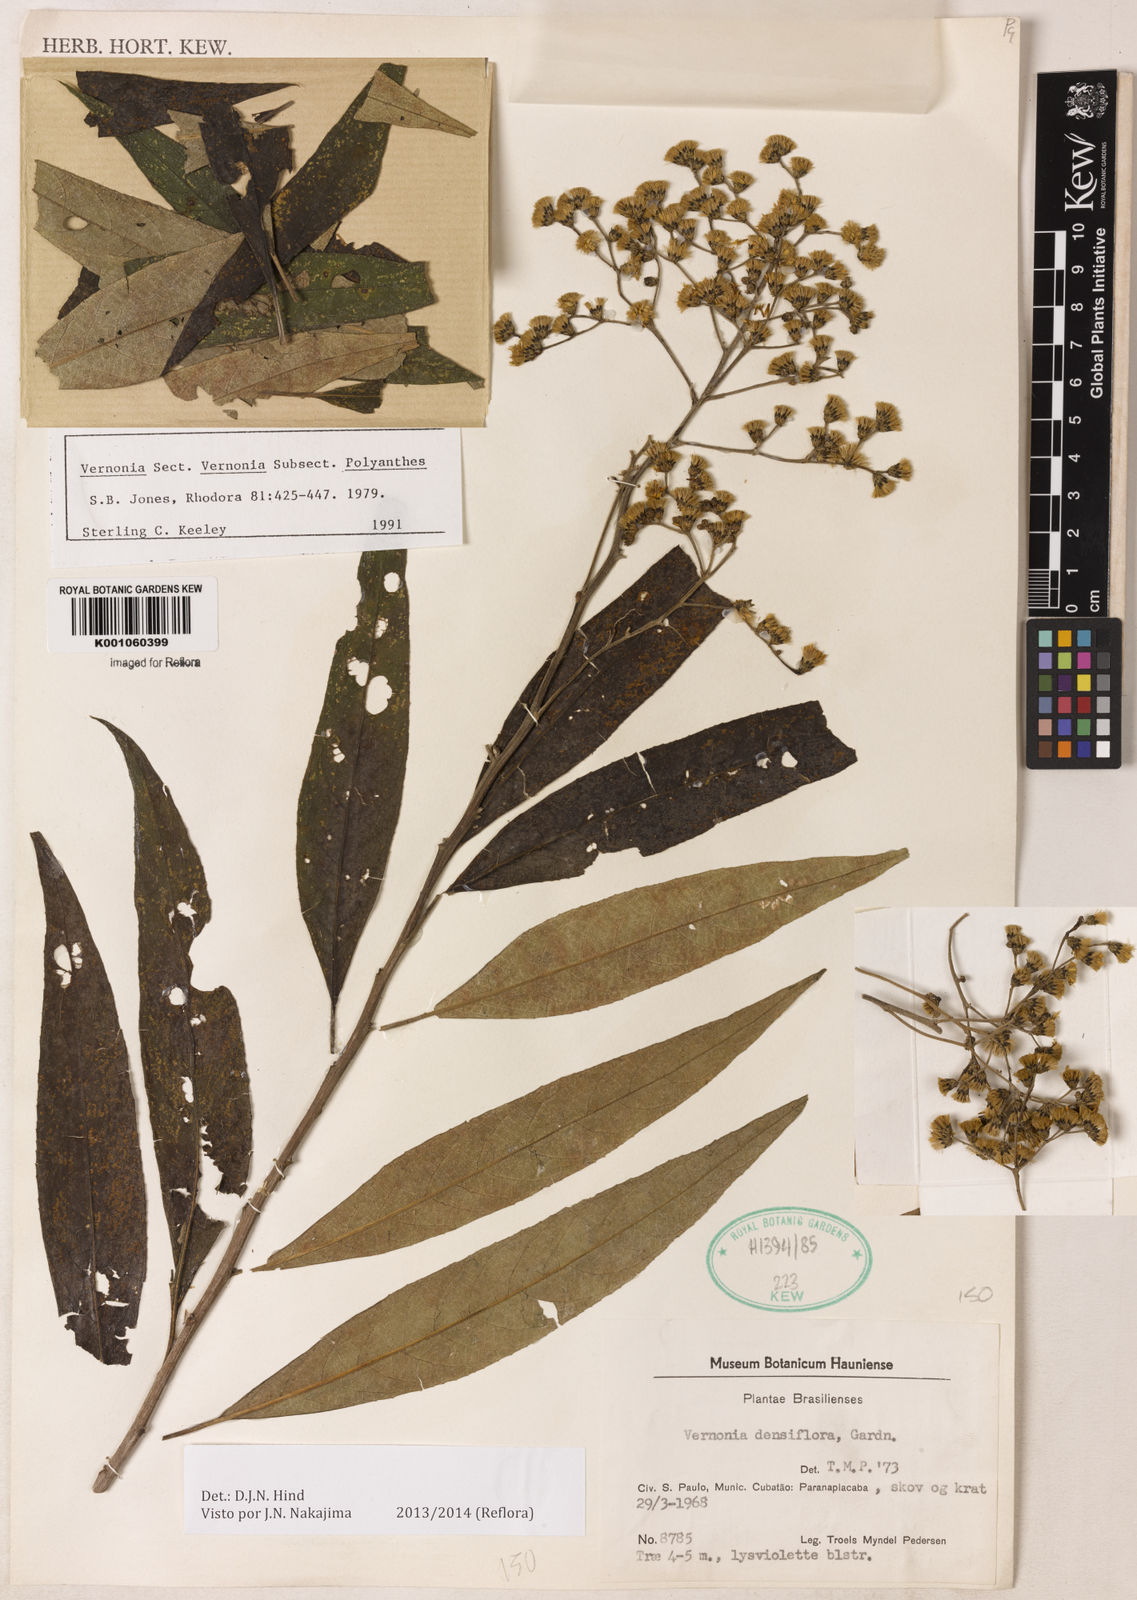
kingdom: Plantae
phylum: Tracheophyta
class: Magnoliopsida
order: Asterales
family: Asteraceae
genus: Vernonanthura
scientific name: Vernonanthura densiflora
